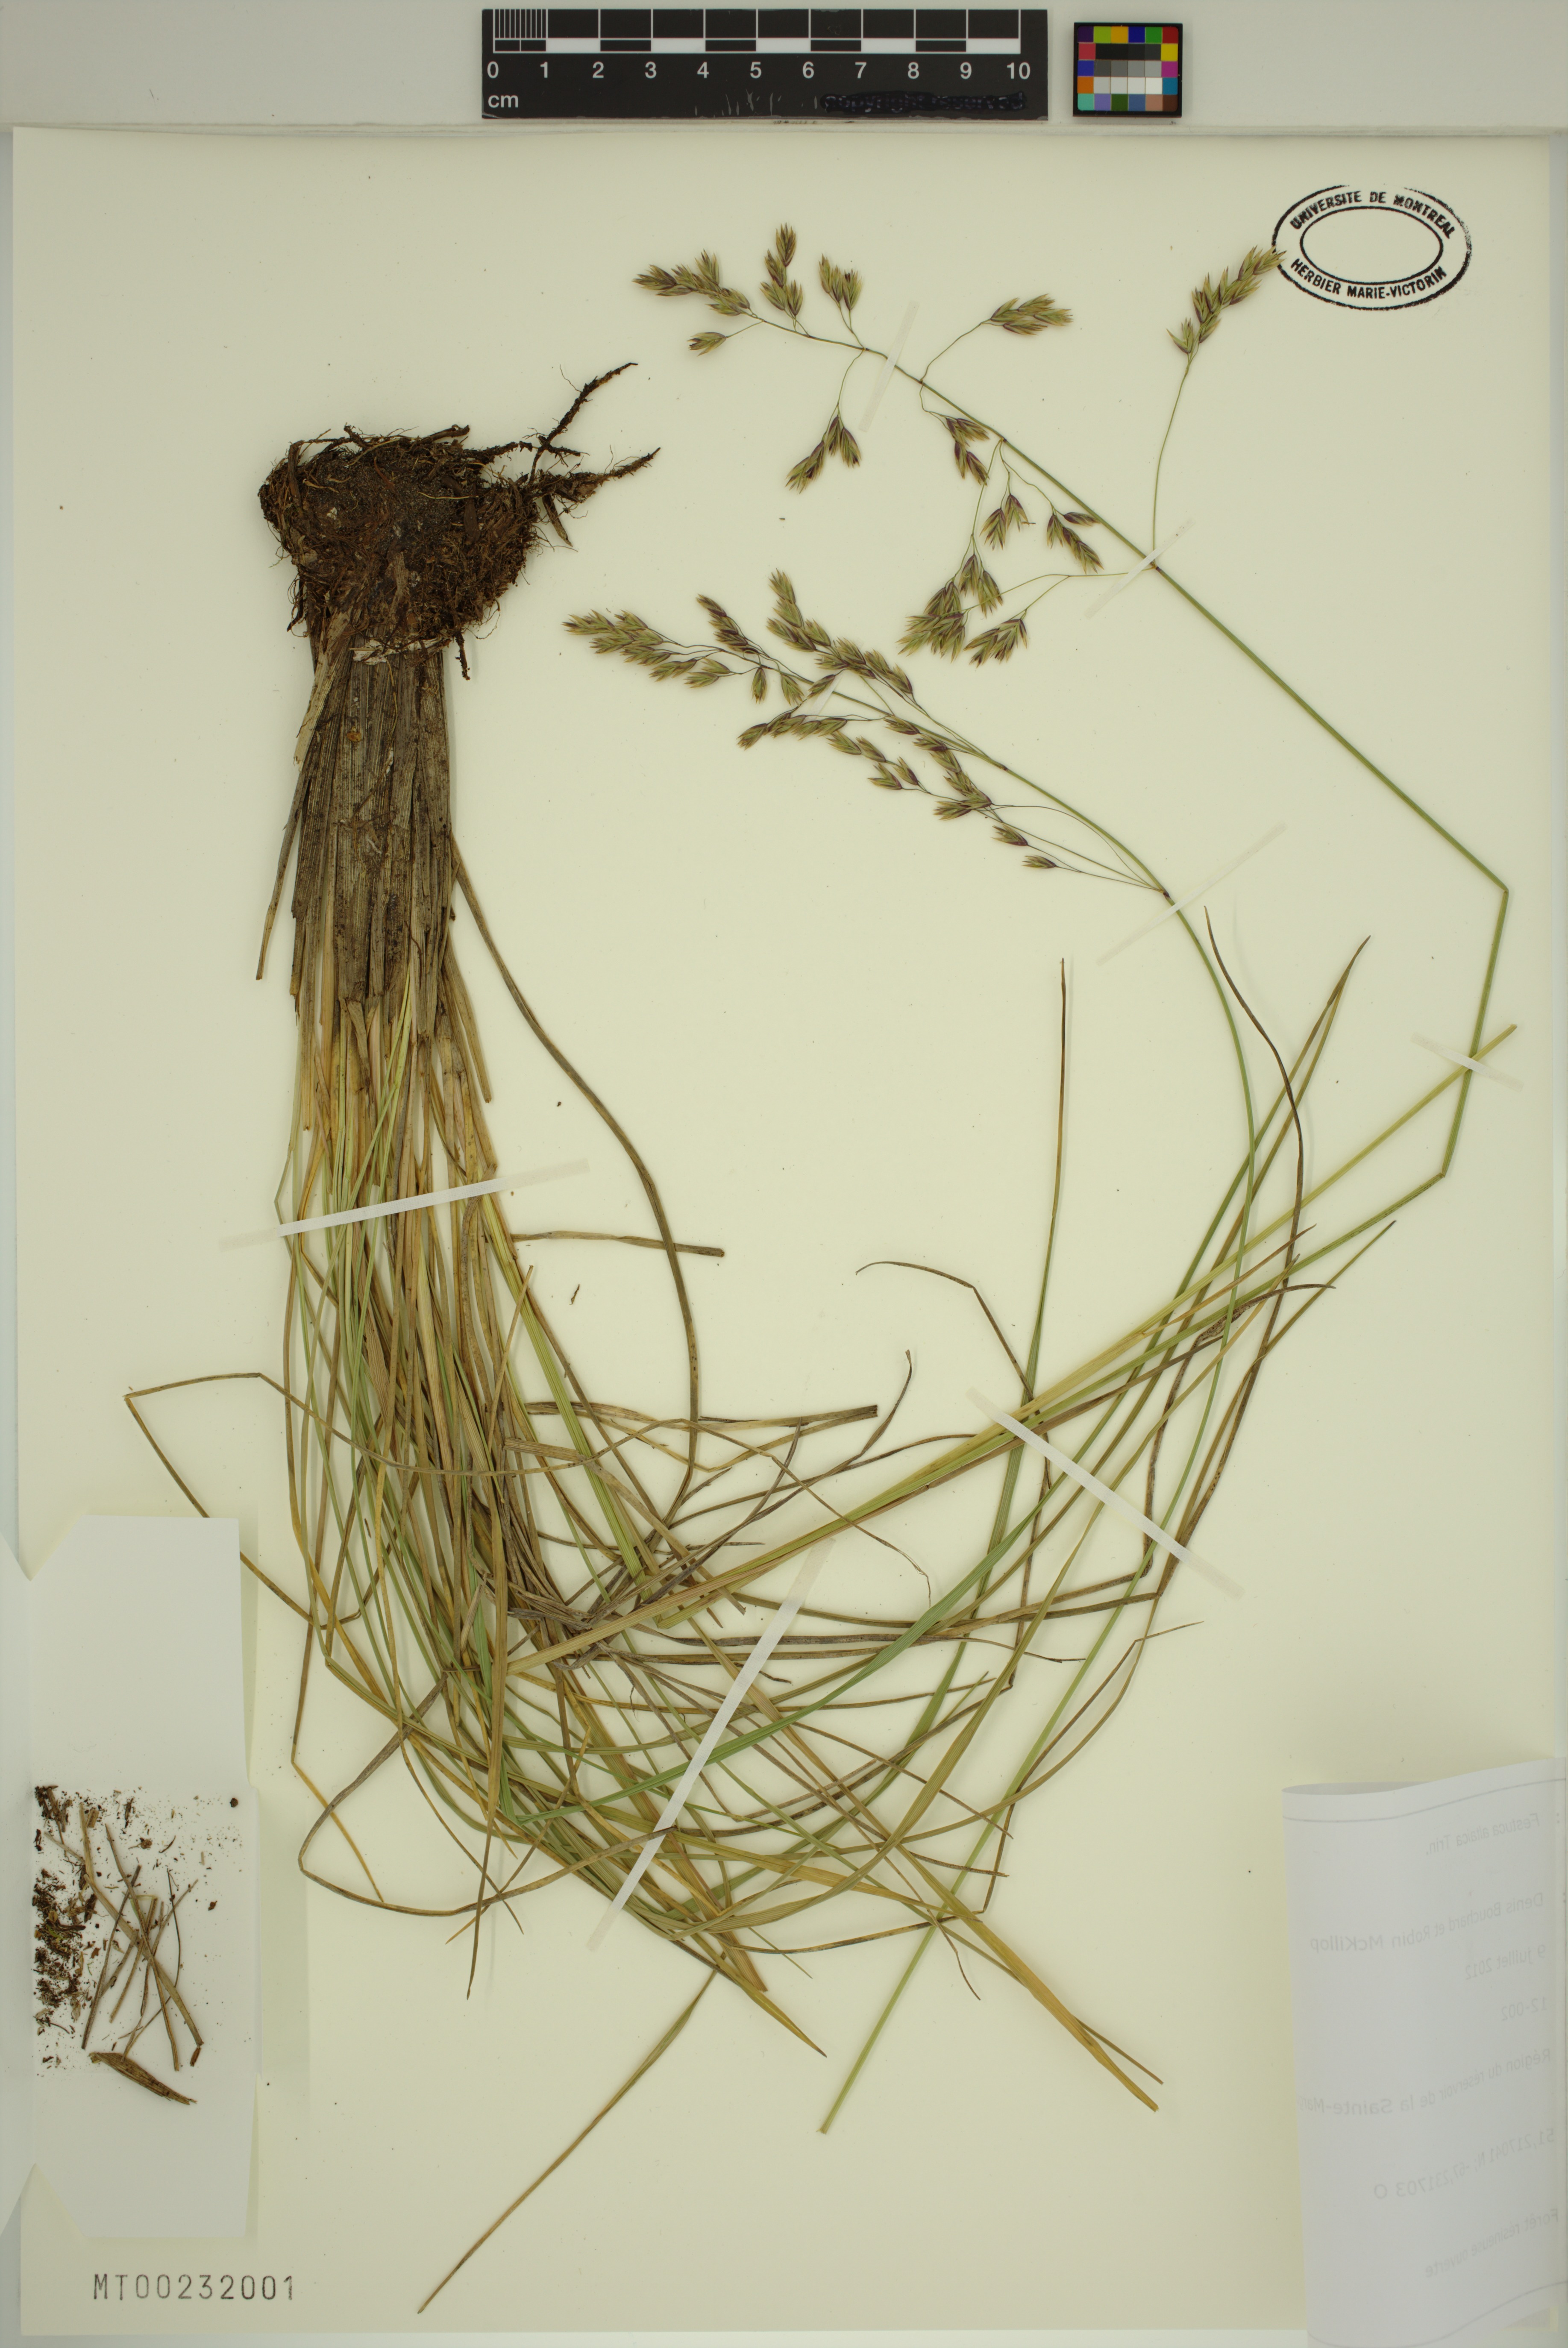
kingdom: Plantae
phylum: Tracheophyta
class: Liliopsida
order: Poales
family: Poaceae
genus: Festuca
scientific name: Festuca altaica
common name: Northern rough fescue
